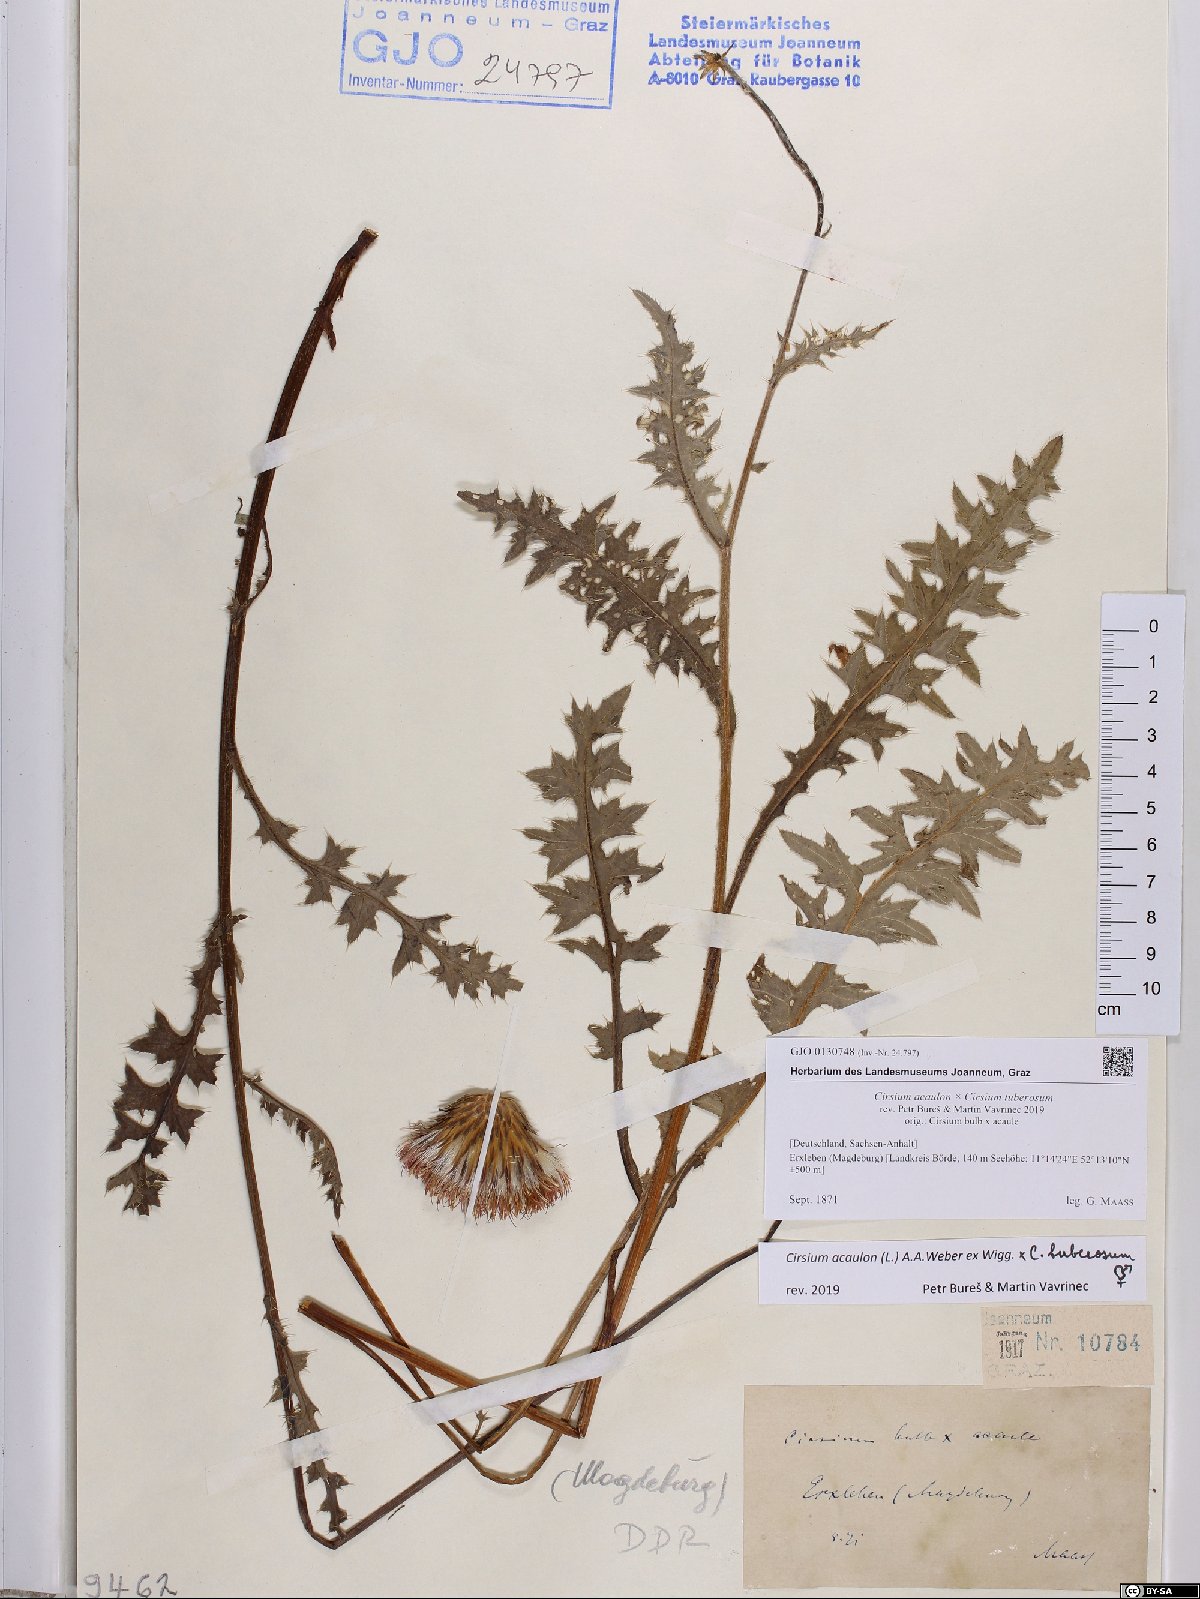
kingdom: Plantae
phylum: Tracheophyta
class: Magnoliopsida
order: Asterales
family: Asteraceae
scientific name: Asteraceae
